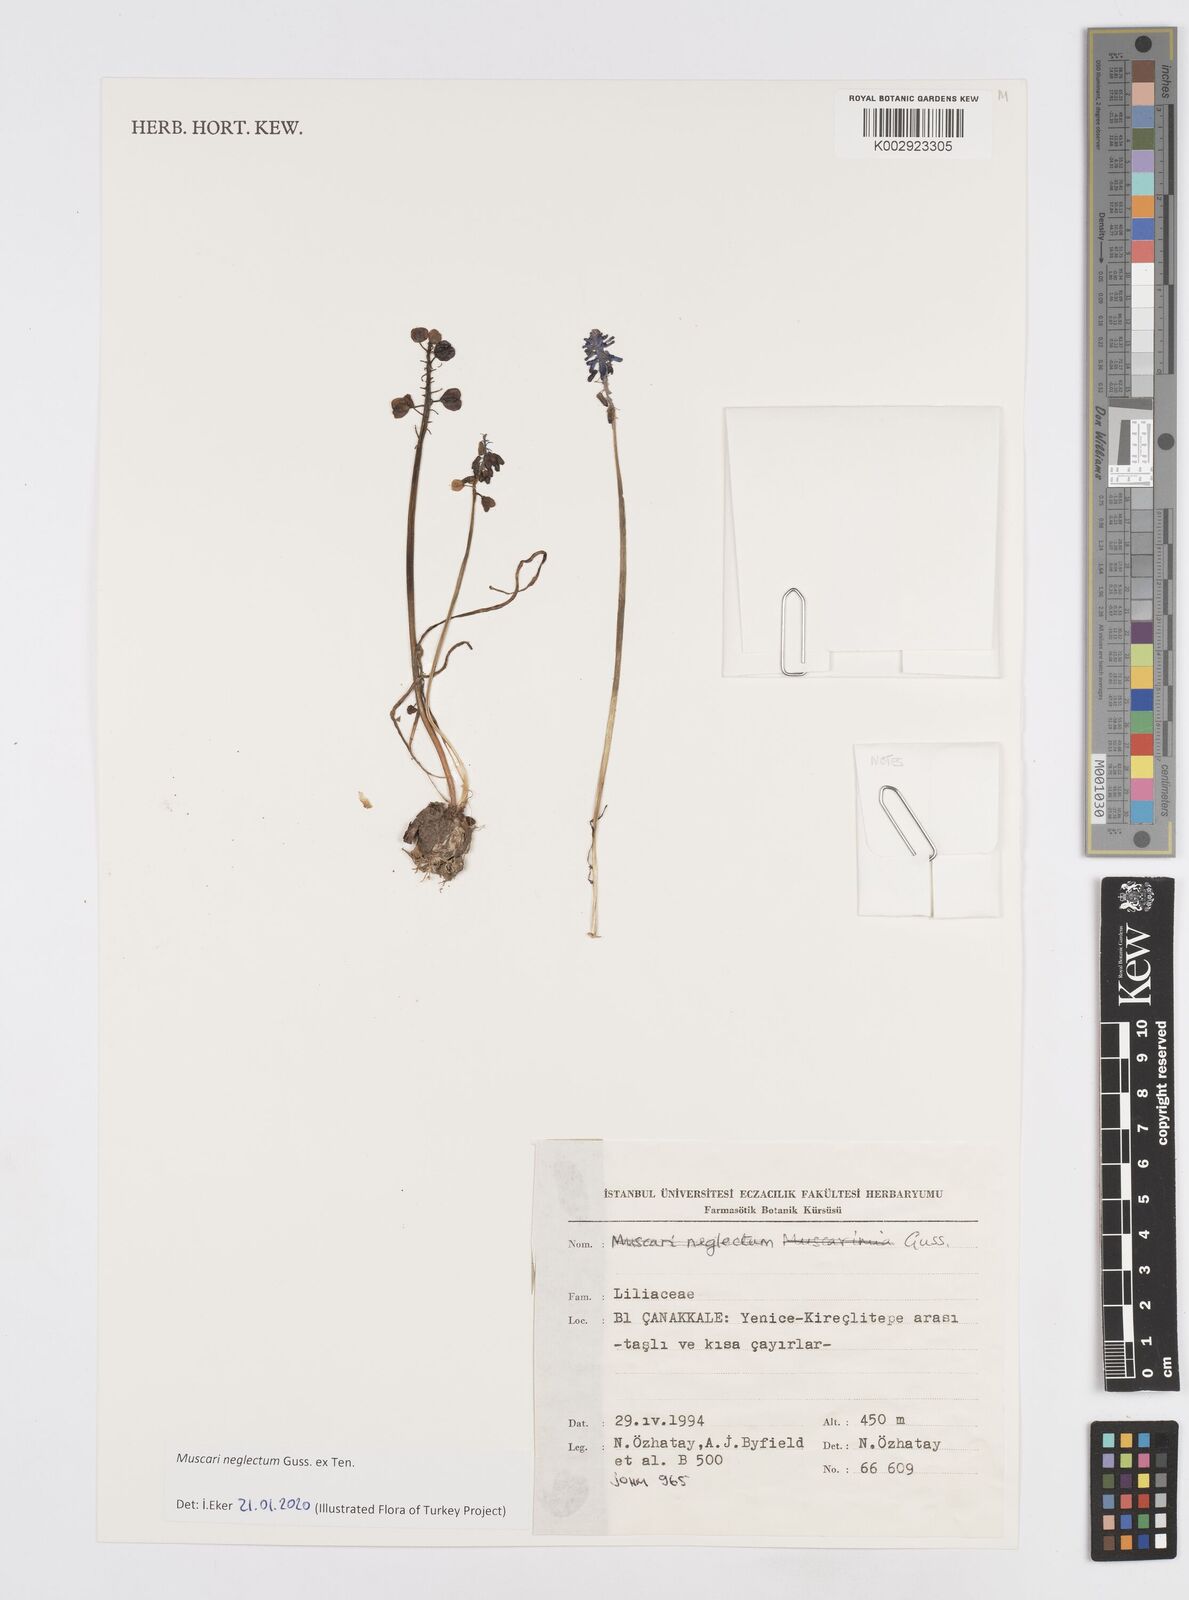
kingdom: Plantae
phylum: Tracheophyta
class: Liliopsida
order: Asparagales
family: Asparagaceae
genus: Muscari
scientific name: Muscari neglectum
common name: Grape-hyacinth
